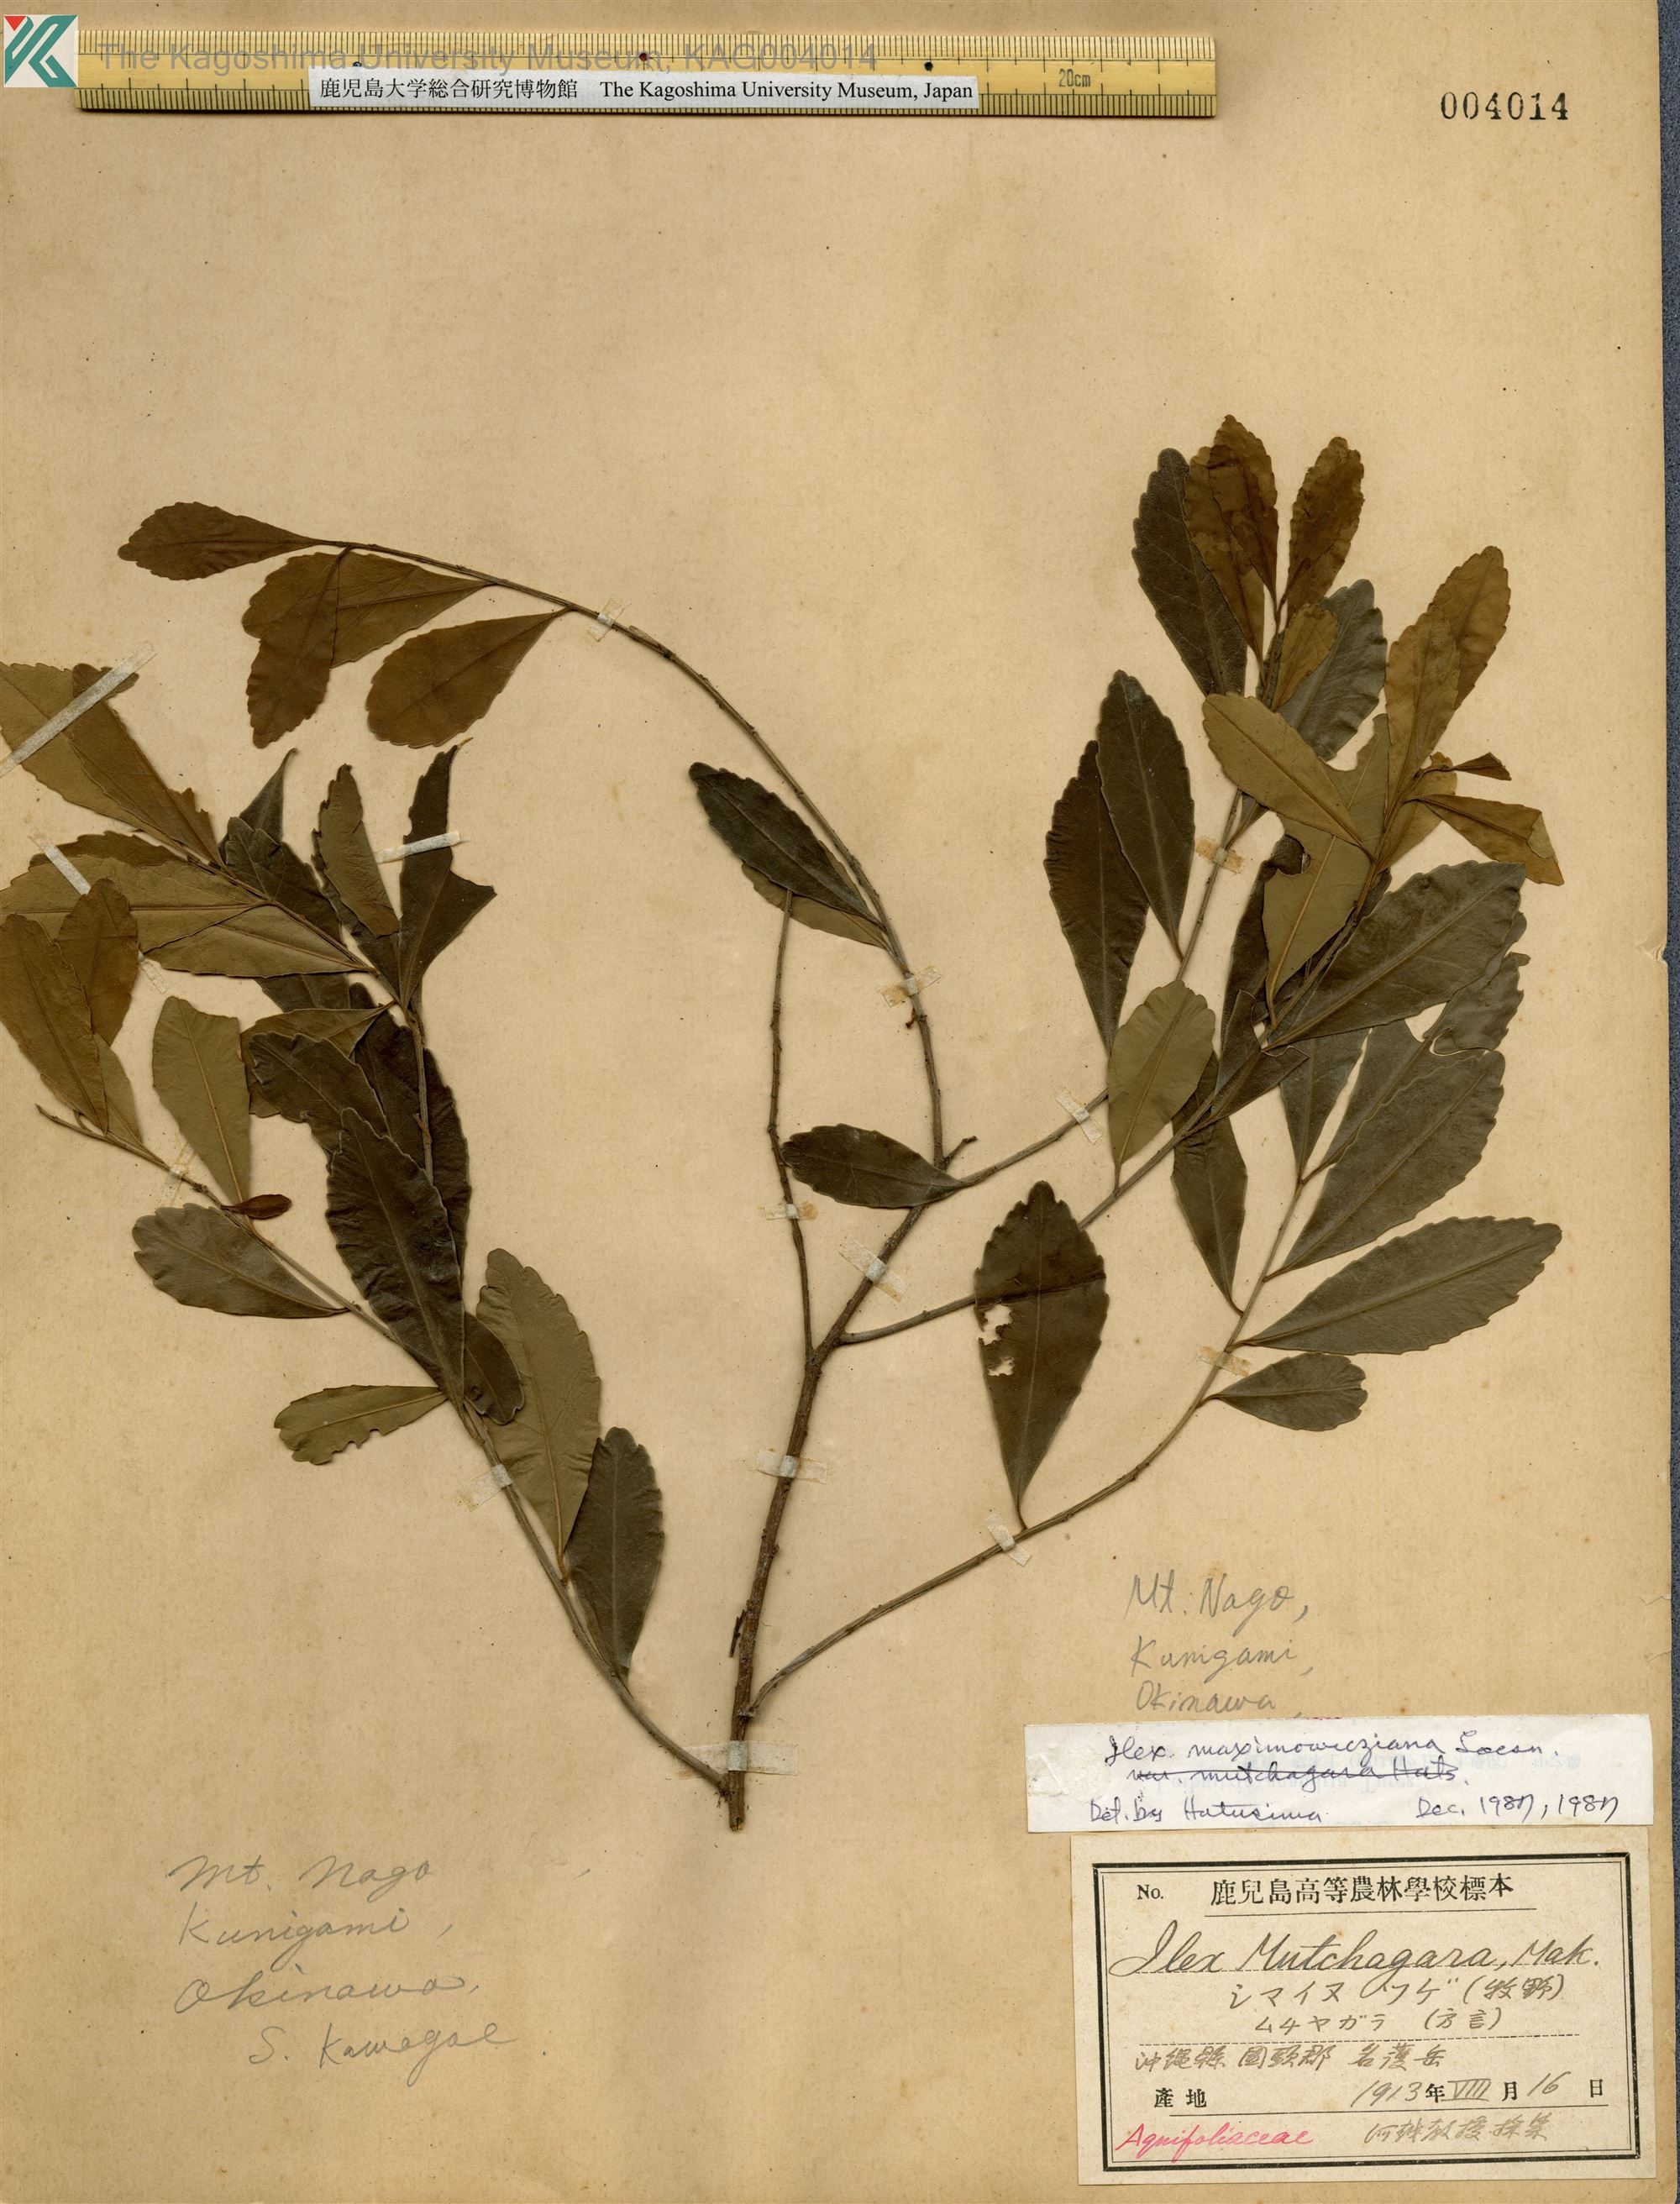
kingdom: Plantae
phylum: Tracheophyta
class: Magnoliopsida
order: Aquifoliales
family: Aquifoliaceae
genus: Ilex
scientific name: Ilex maximowicziana
